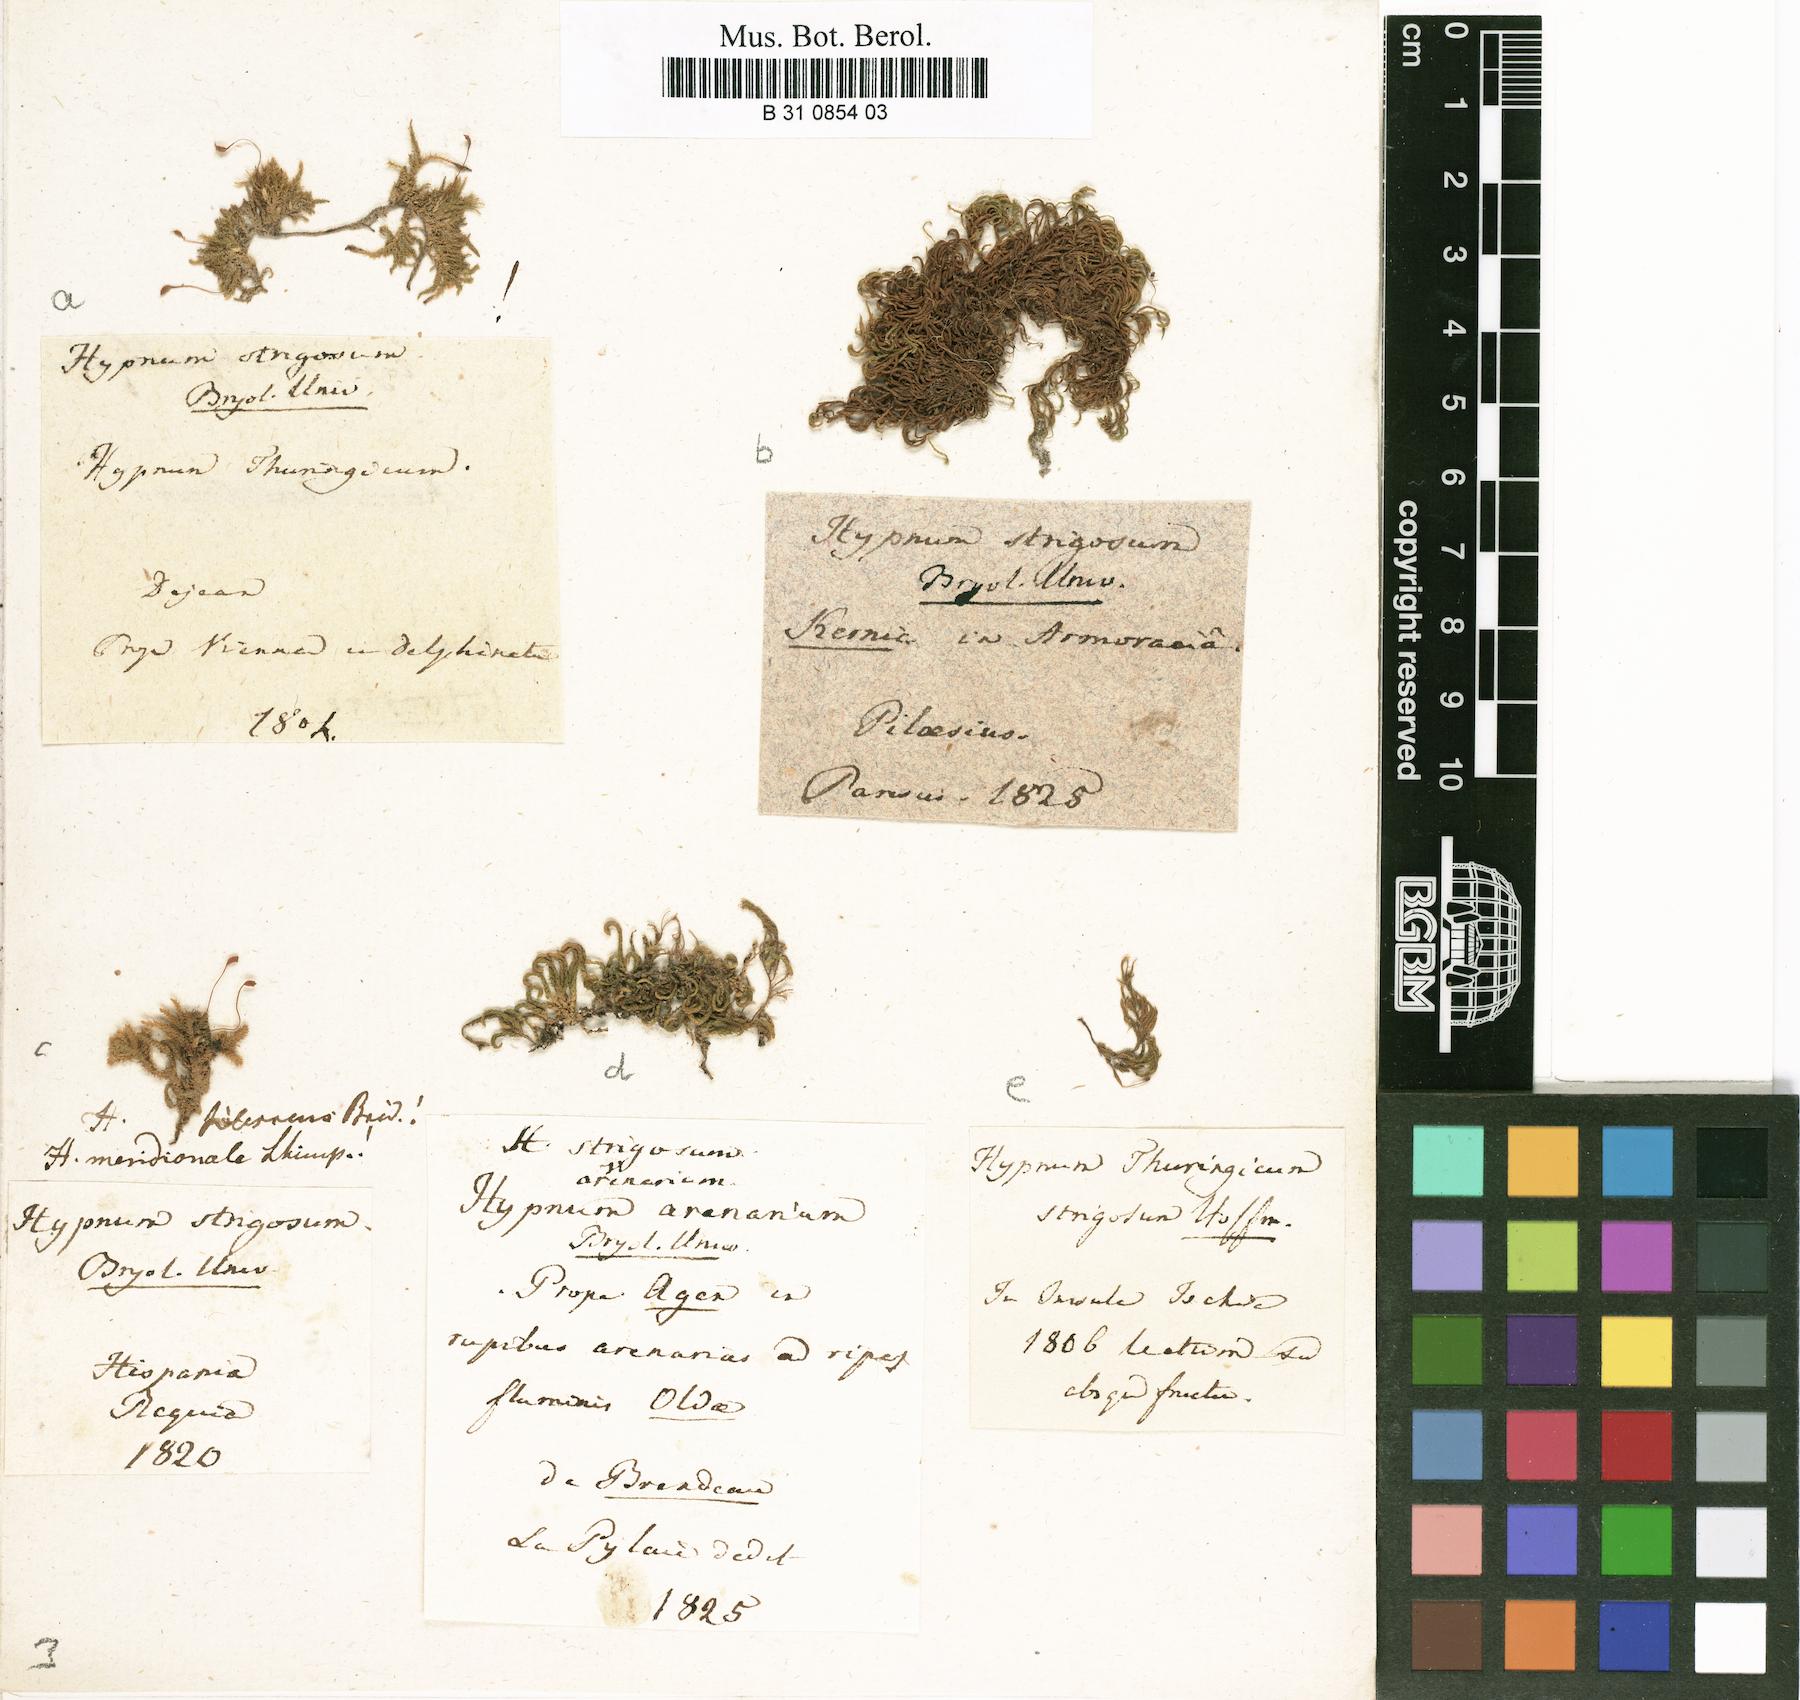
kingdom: Plantae
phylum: Bryophyta
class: Bryopsida
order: Hypnales
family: Brachytheciaceae
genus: Eurhynchiastrum
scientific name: Eurhynchiastrum pulchellum
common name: Elegant beaked moss
